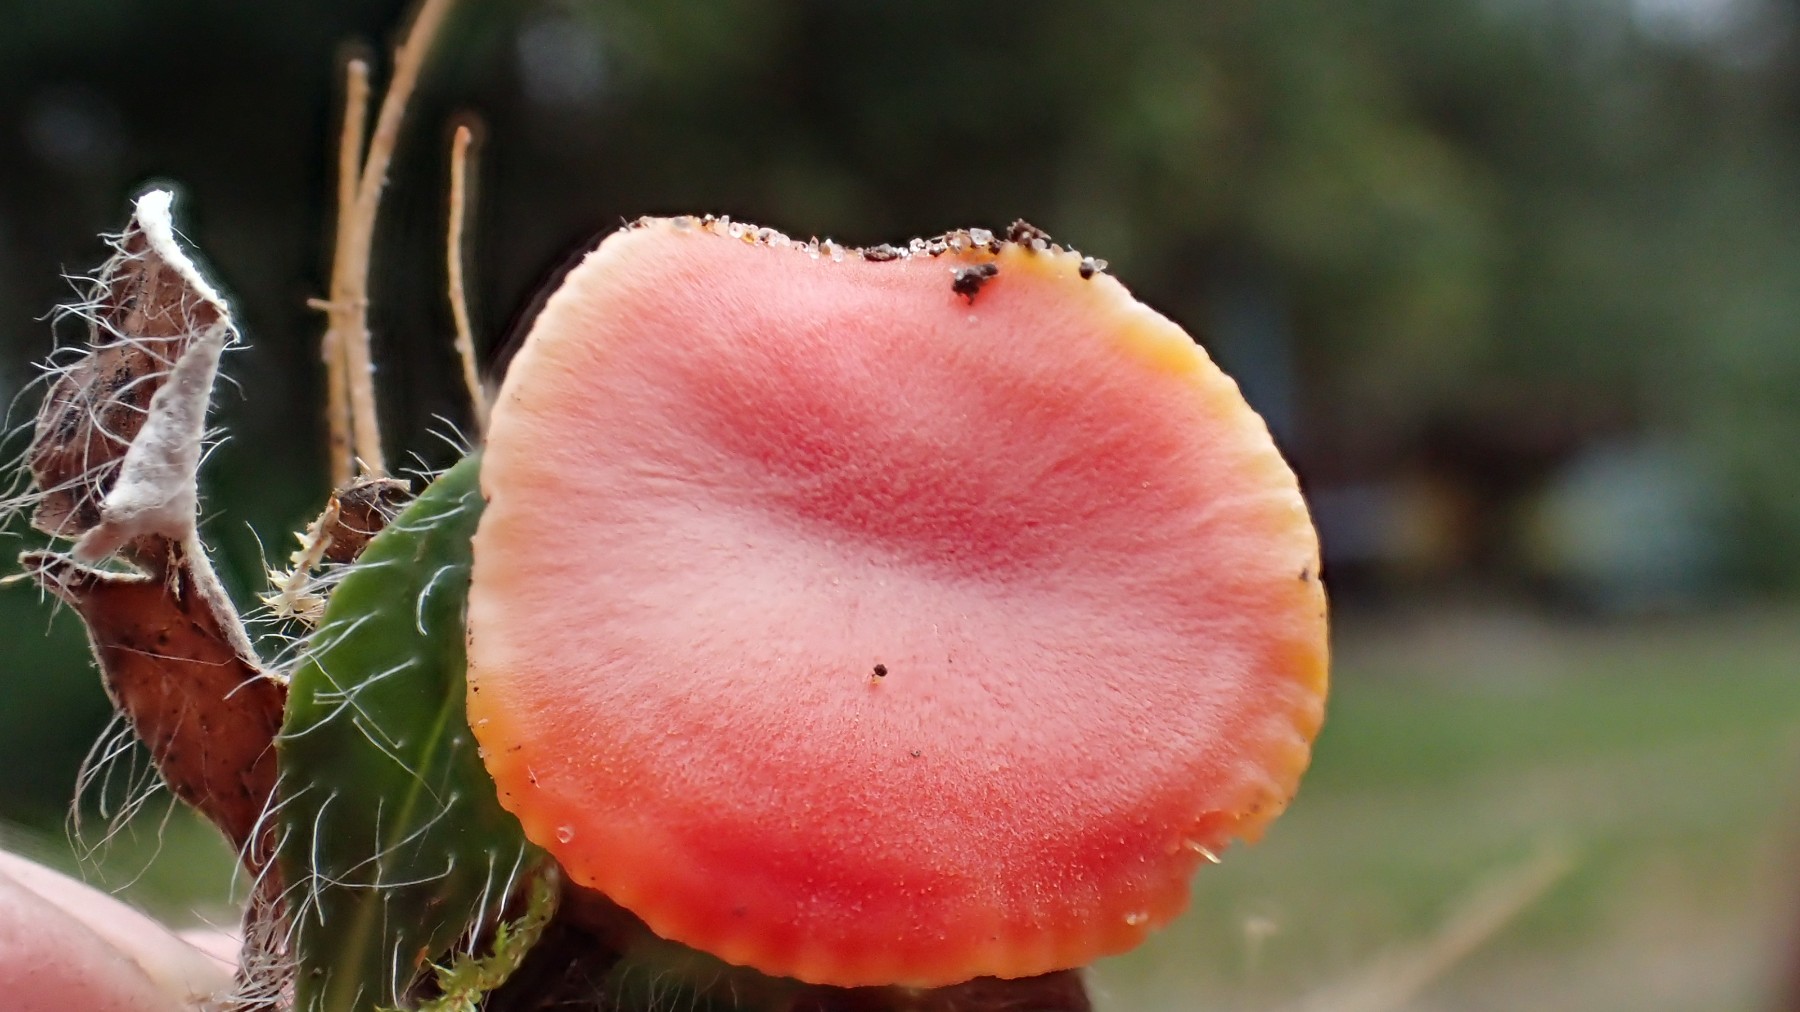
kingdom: Fungi
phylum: Basidiomycota
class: Agaricomycetes
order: Agaricales
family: Hygrophoraceae
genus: Hygrocybe
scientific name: Hygrocybe reidii
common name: honning-vokshat
